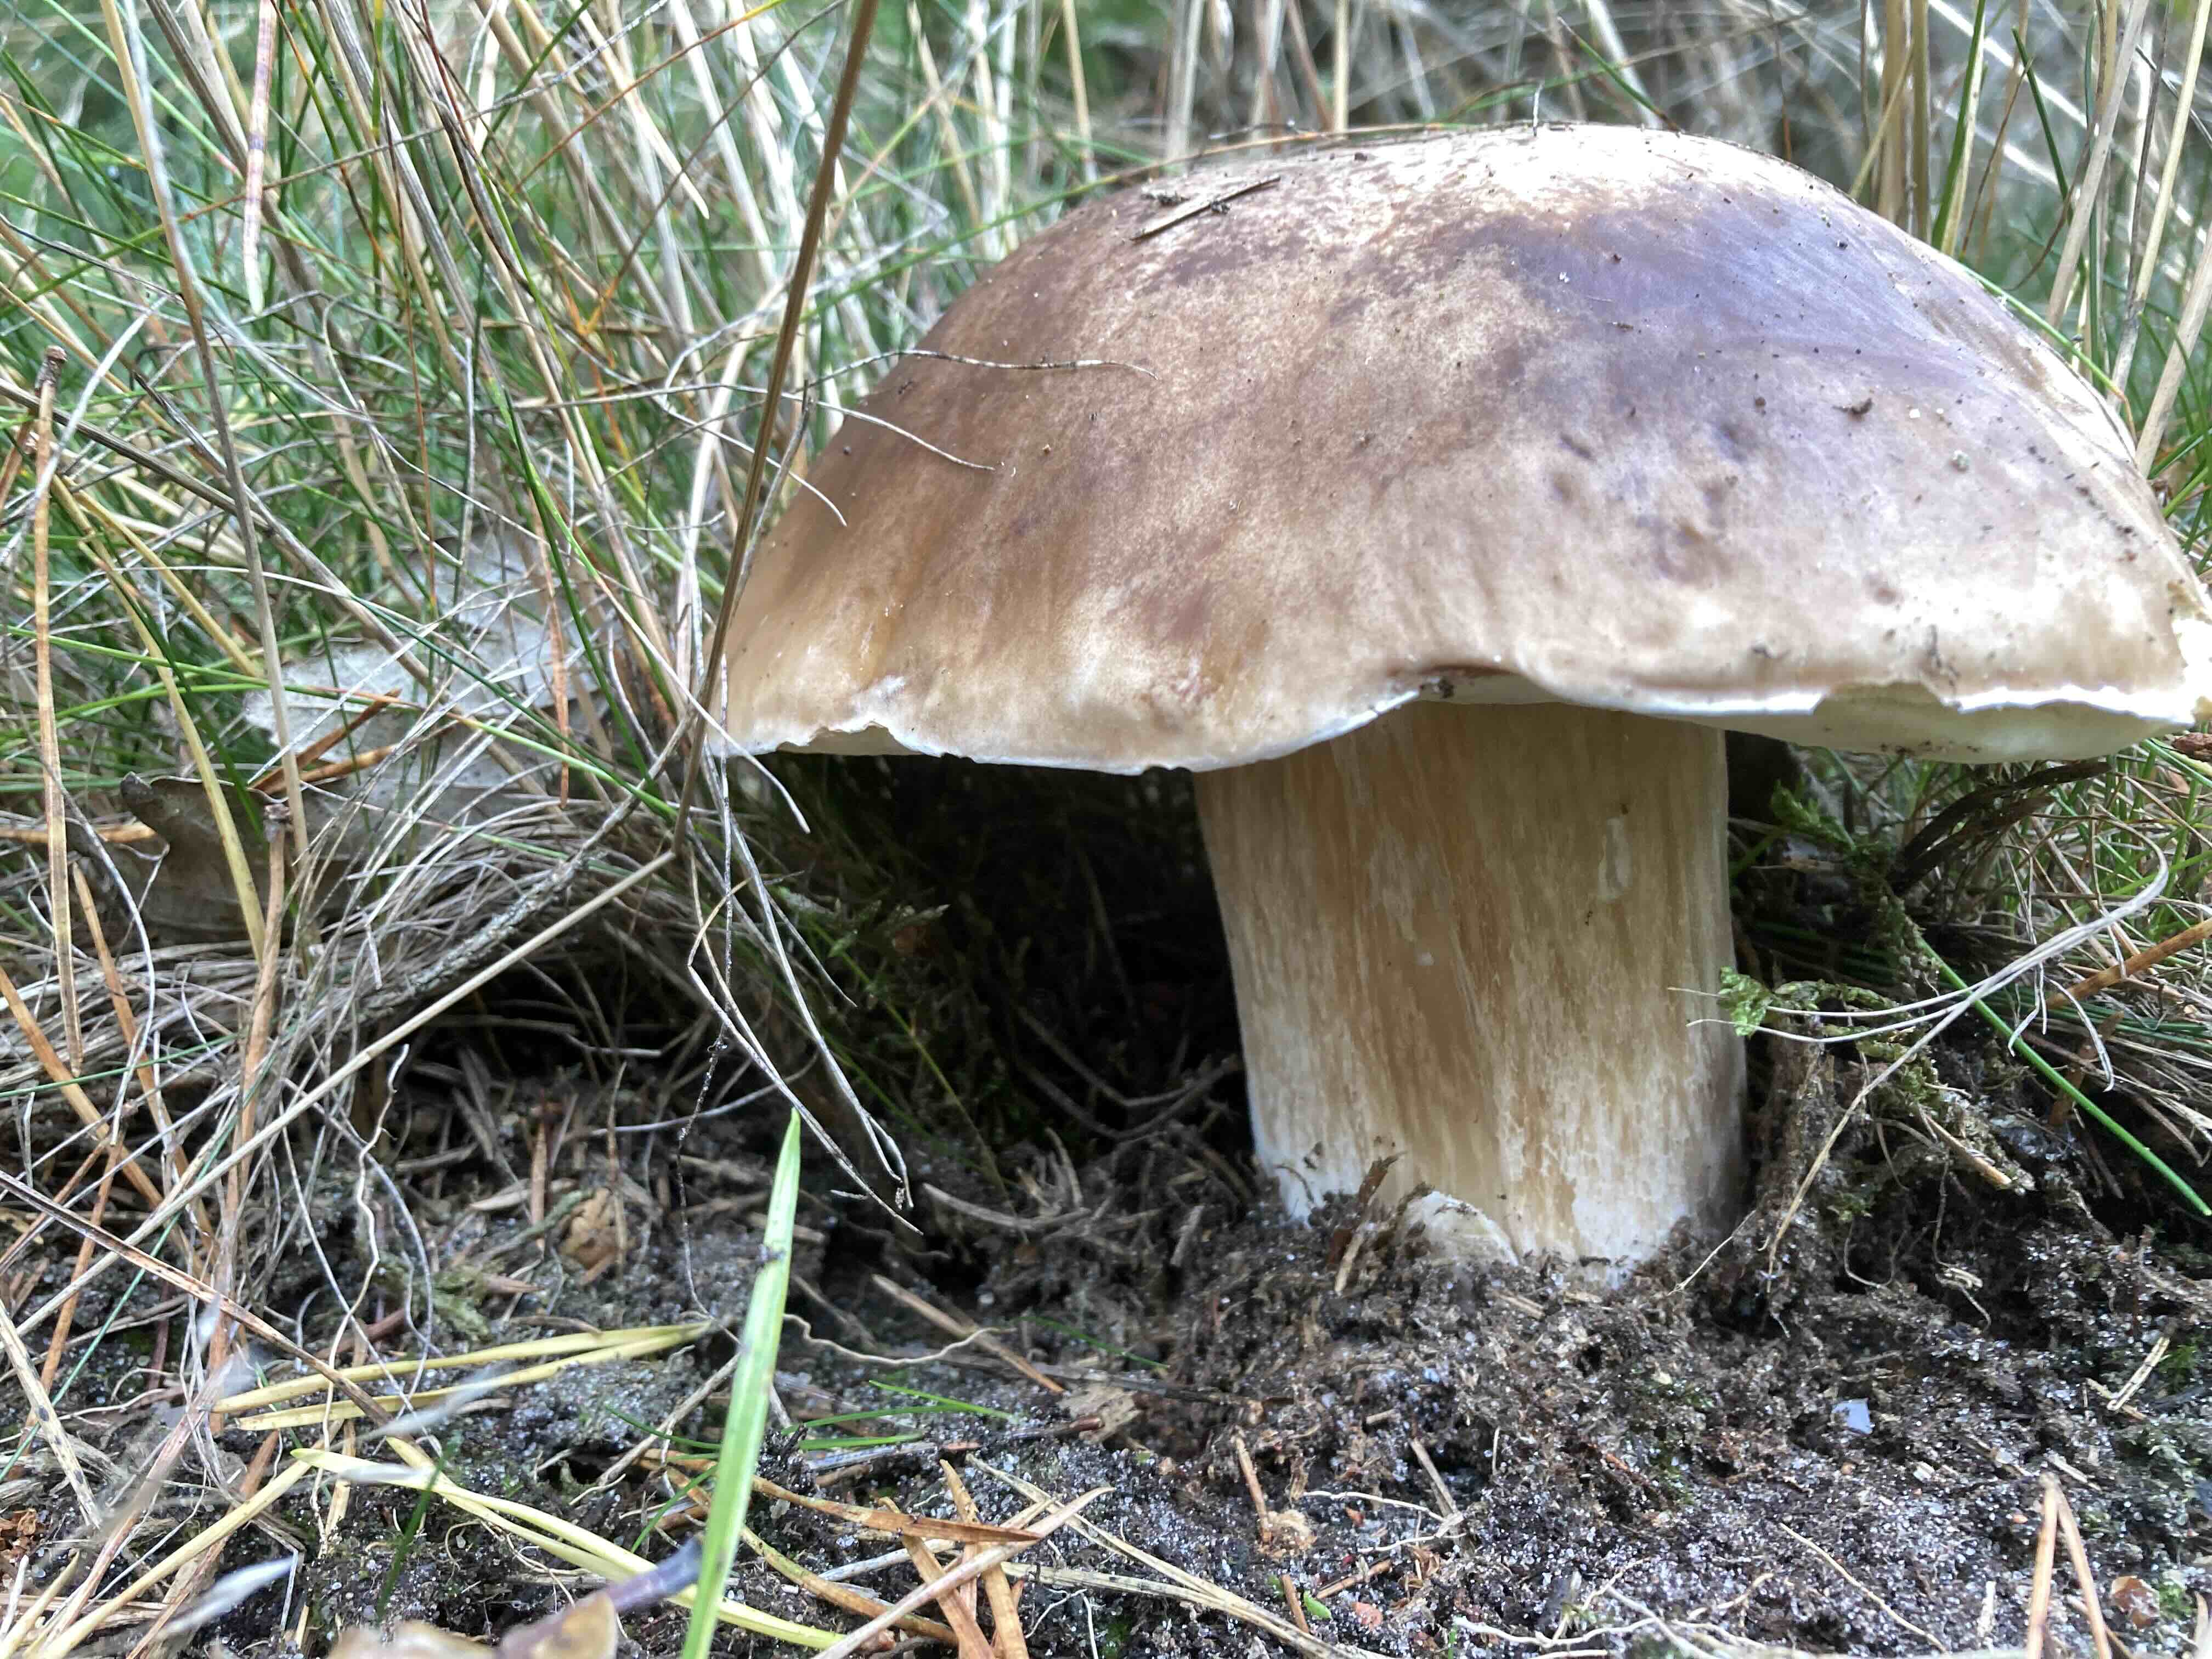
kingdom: Fungi
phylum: Basidiomycota
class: Agaricomycetes
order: Boletales
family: Boletaceae
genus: Boletus
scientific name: Boletus edulis
